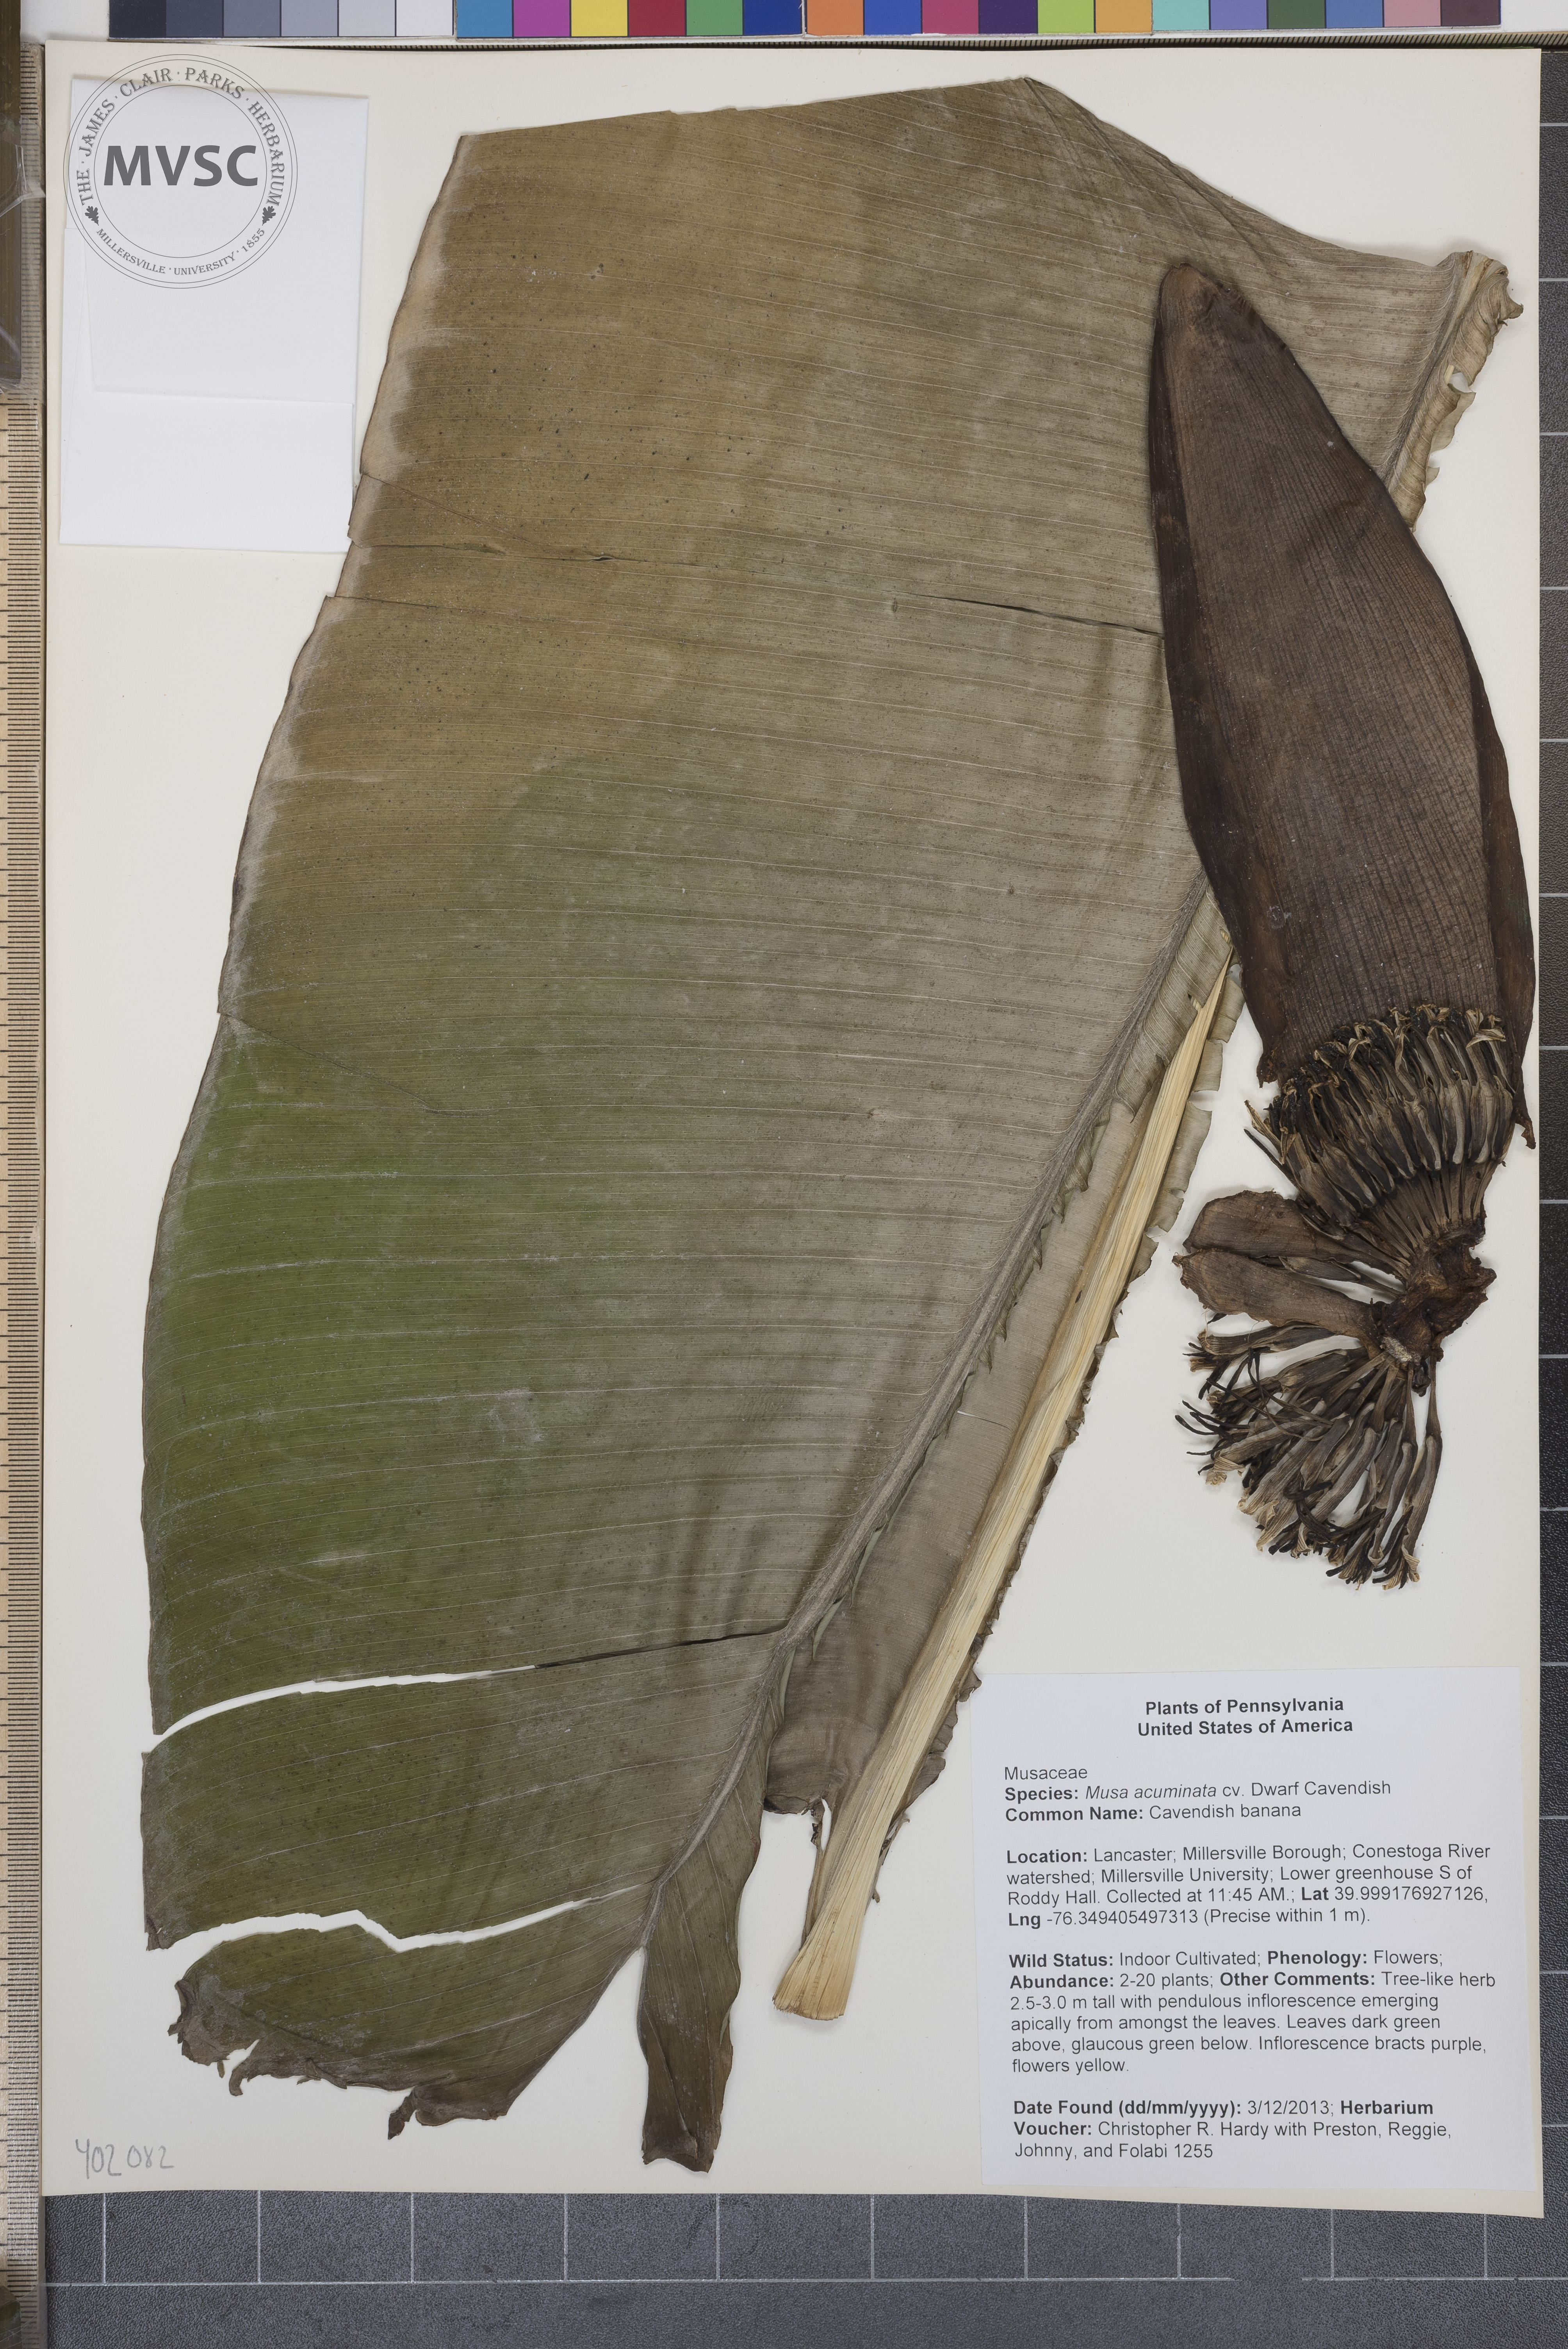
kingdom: Plantae
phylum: Tracheophyta
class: Liliopsida
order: Zingiberales
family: Musaceae
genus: Musa
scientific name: Musa acuminata
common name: Cavendish banana
